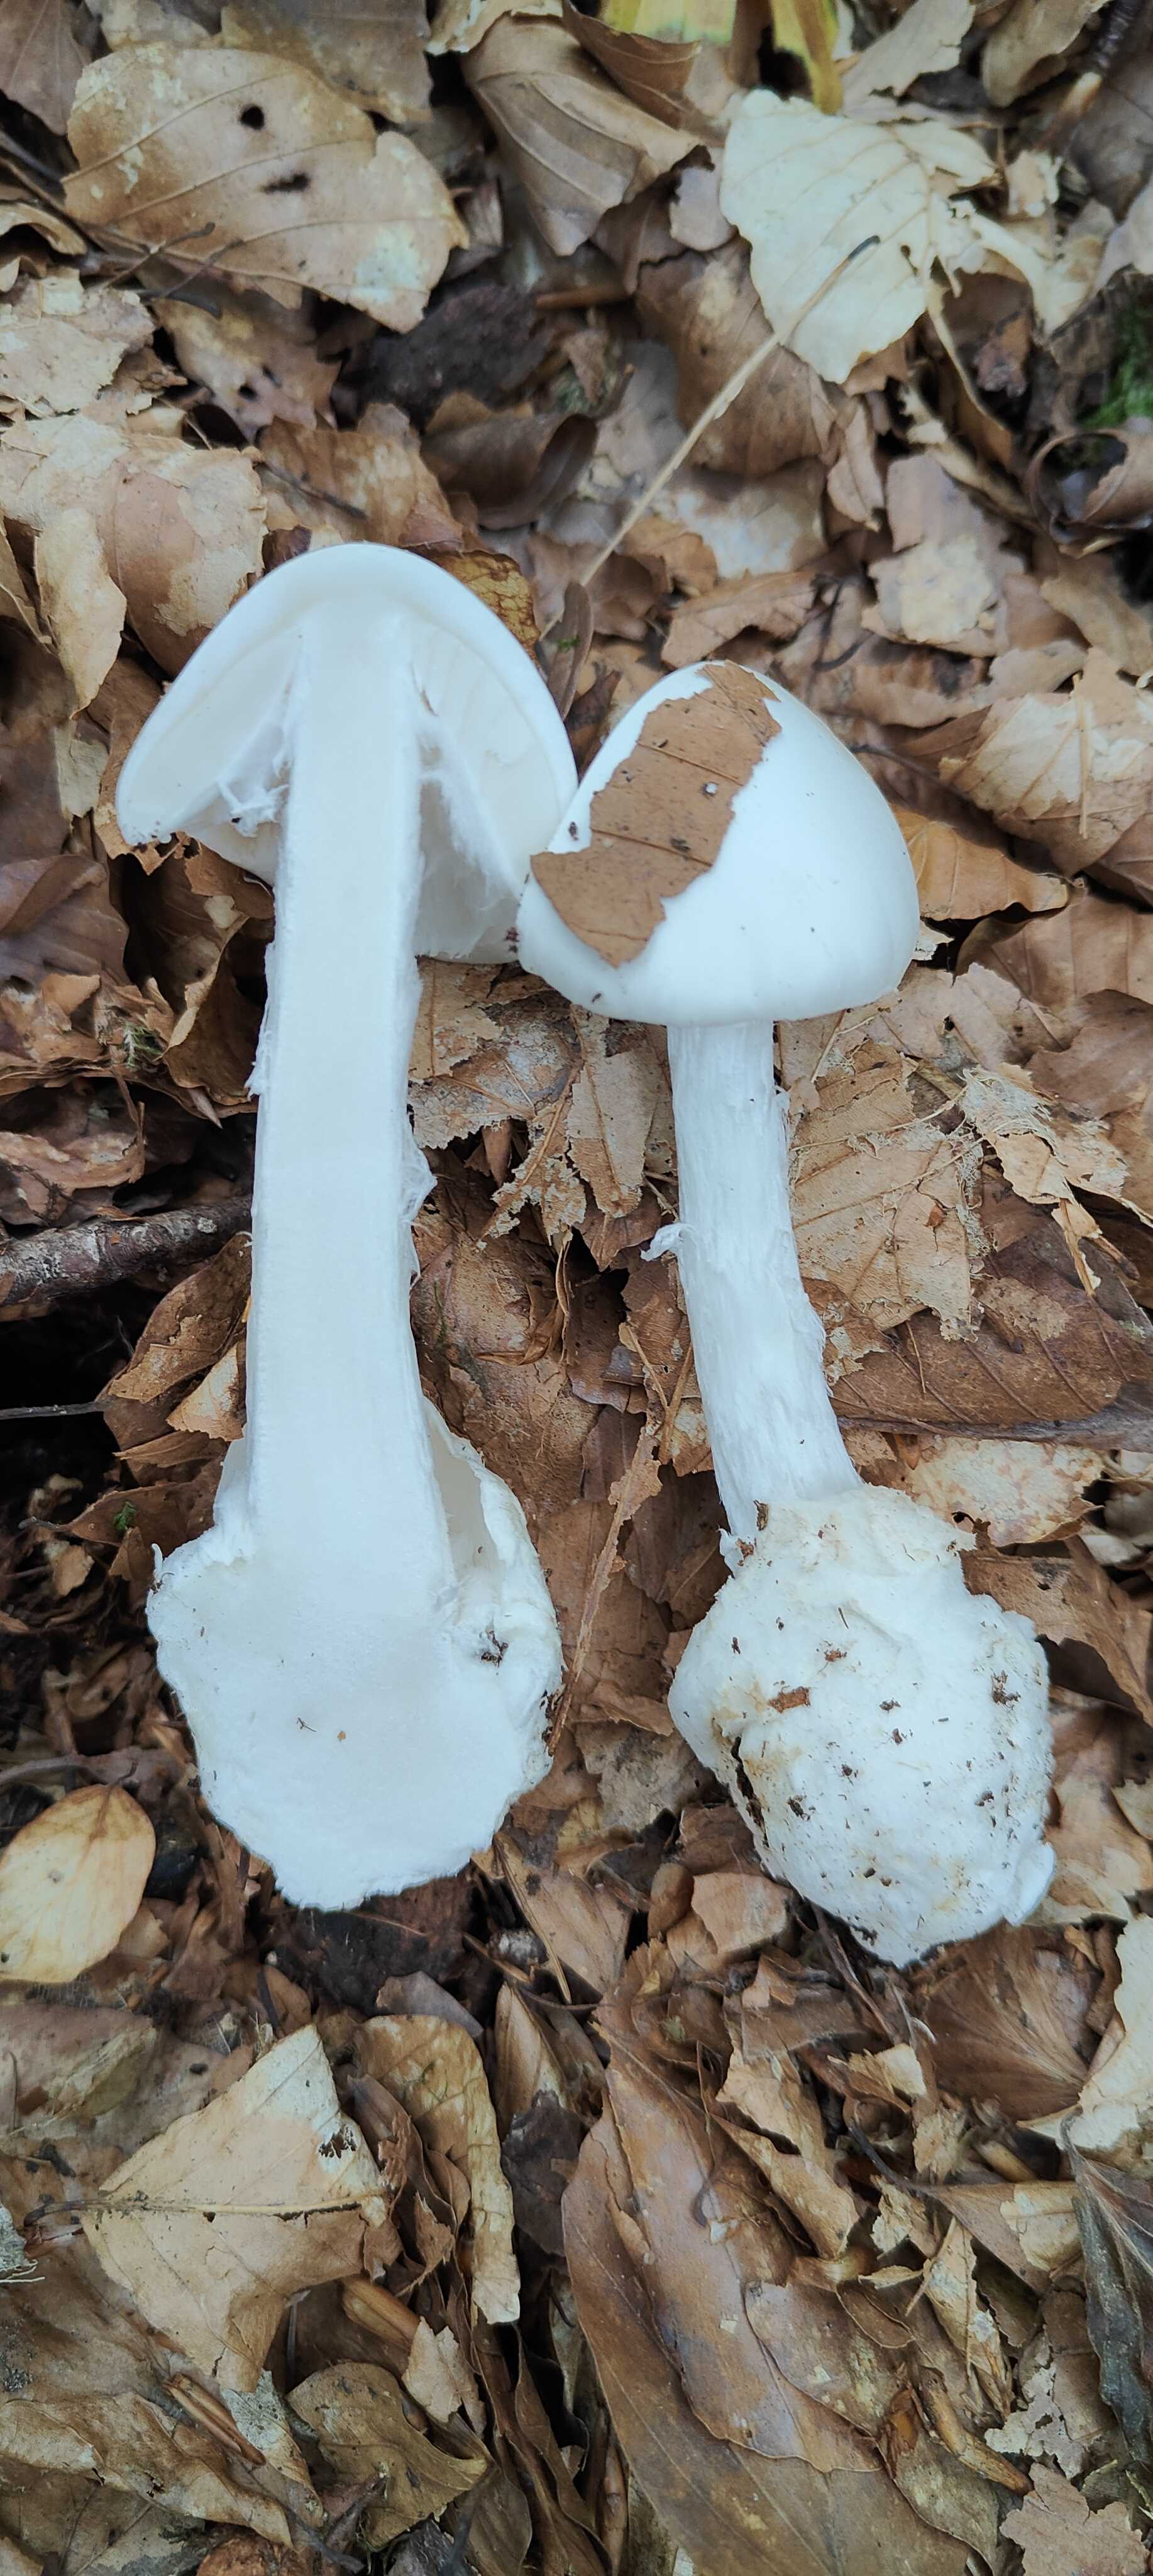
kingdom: Fungi
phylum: Basidiomycota
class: Agaricomycetes
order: Agaricales
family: Amanitaceae
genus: Amanita
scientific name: Amanita virosa
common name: snehvid fluesvamp
